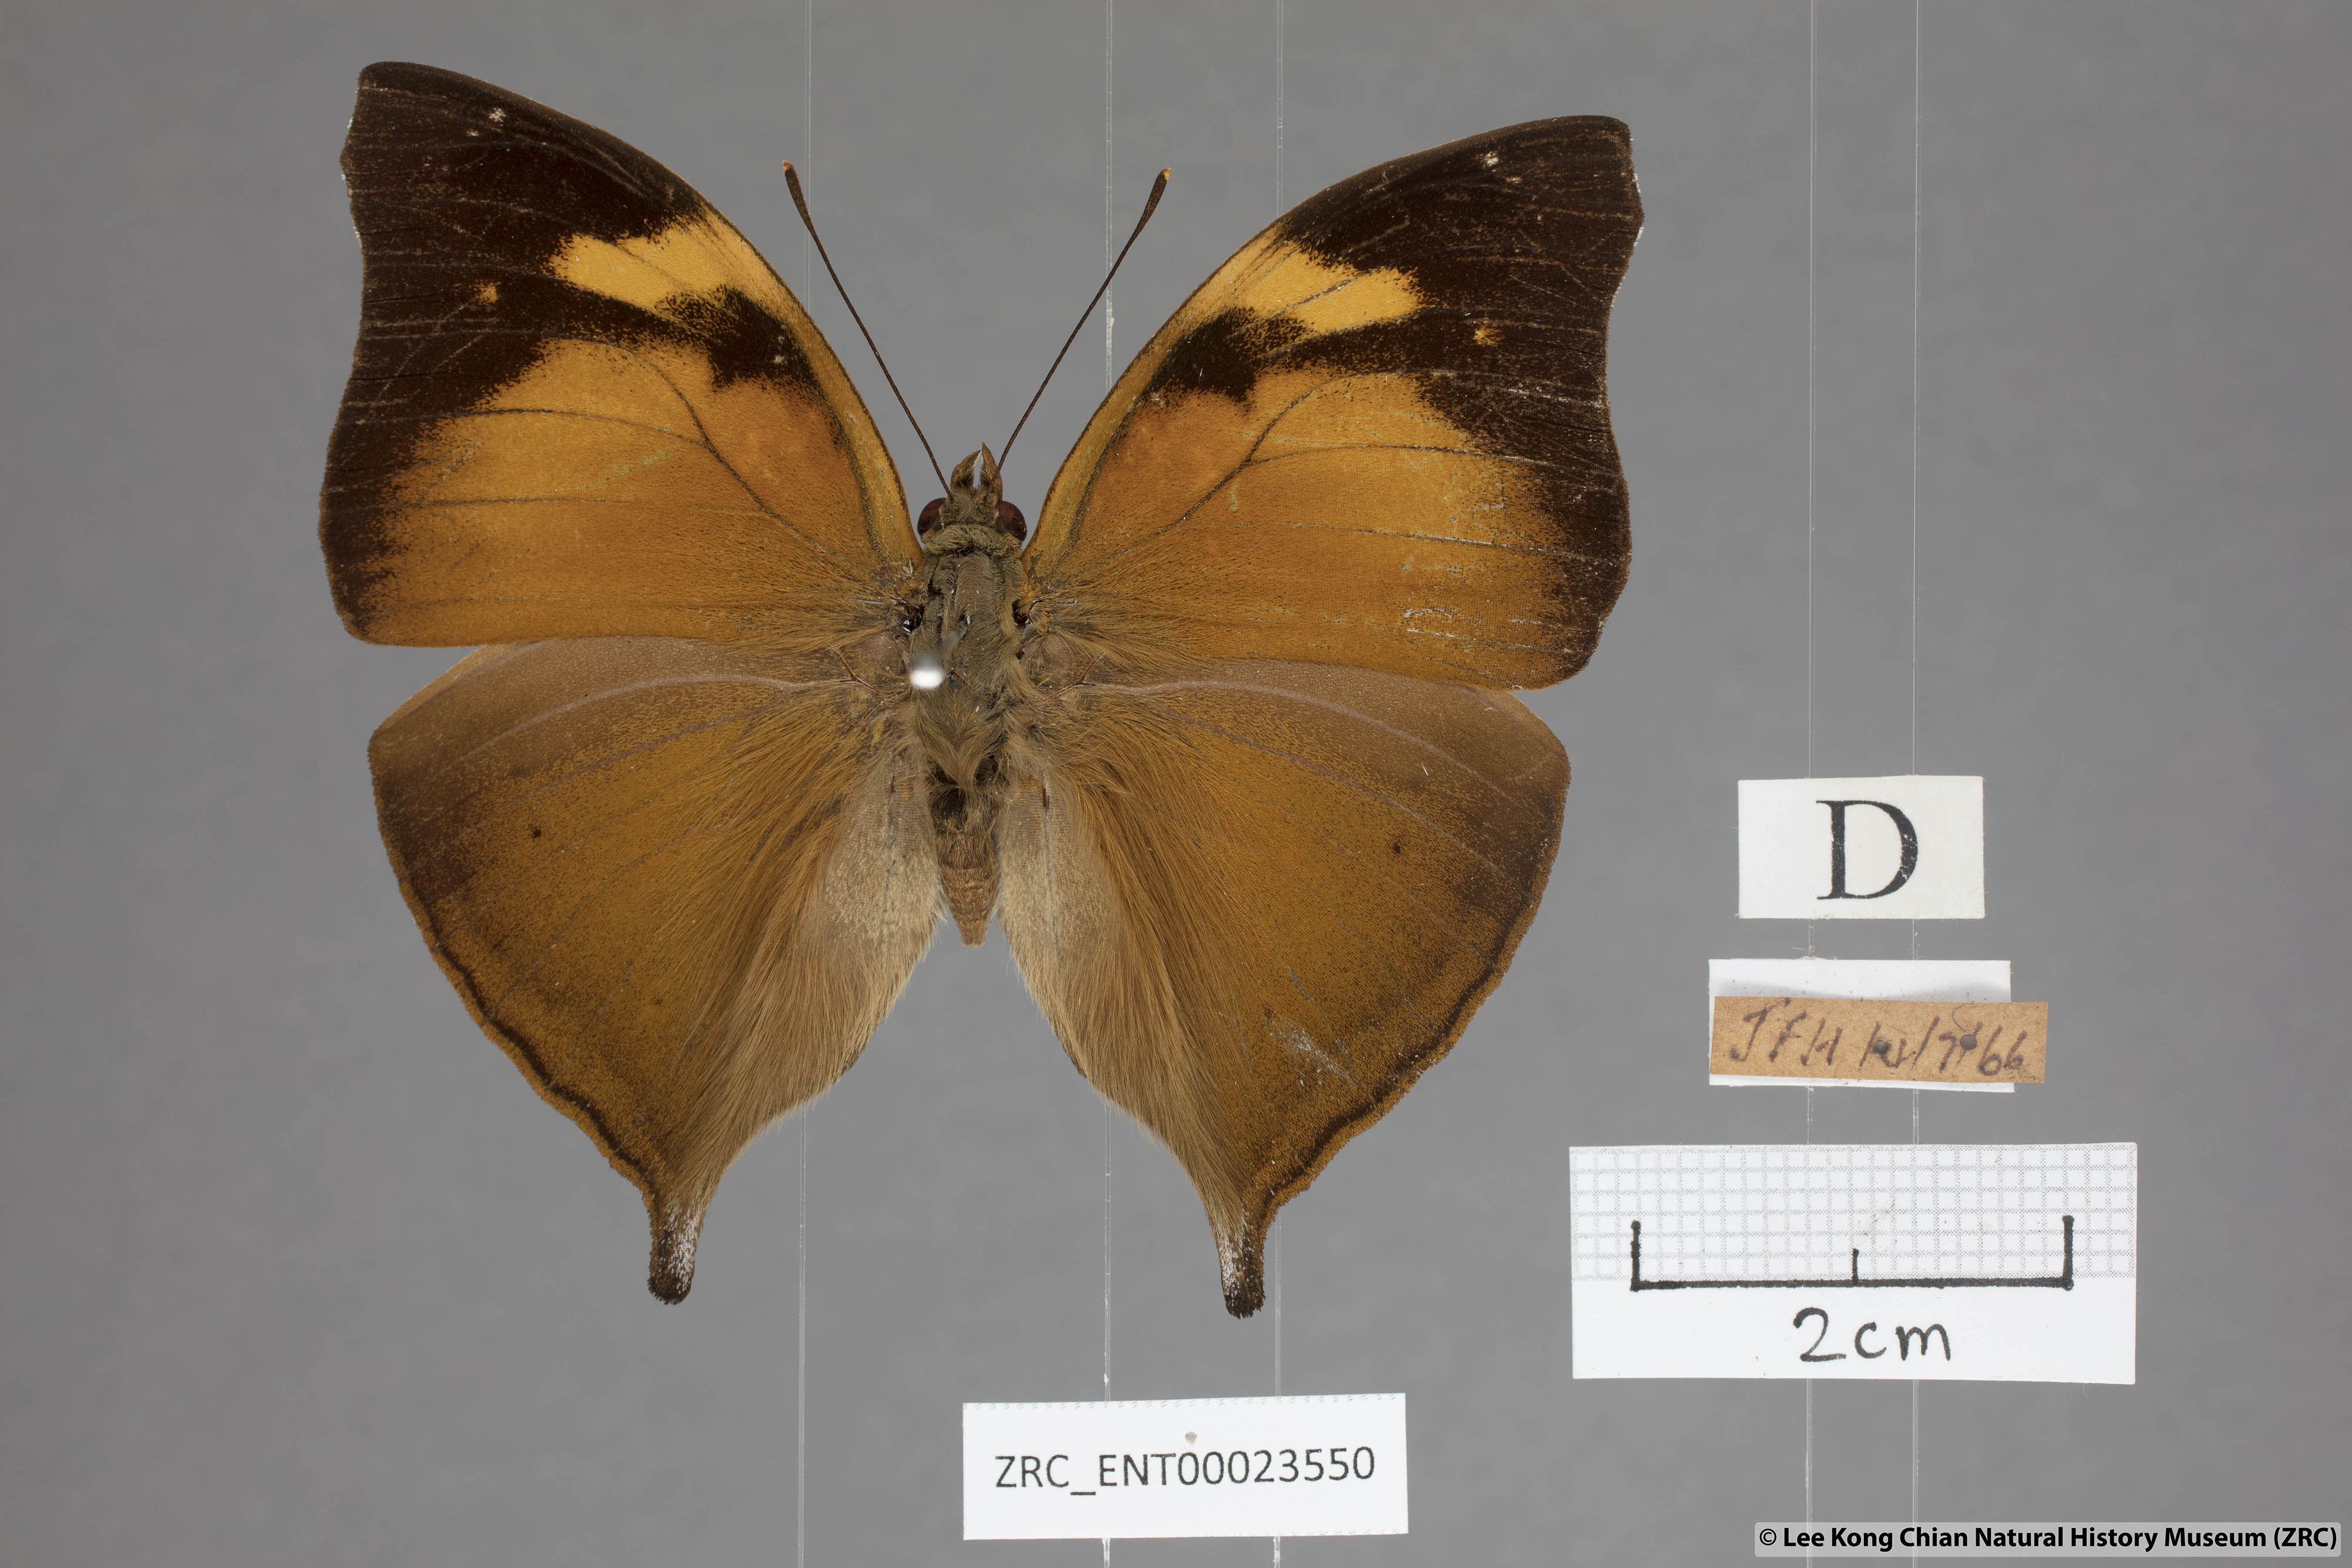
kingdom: Animalia
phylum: Arthropoda
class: Insecta
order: Lepidoptera
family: Nymphalidae
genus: Doleschallia
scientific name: Doleschallia bisaltide
